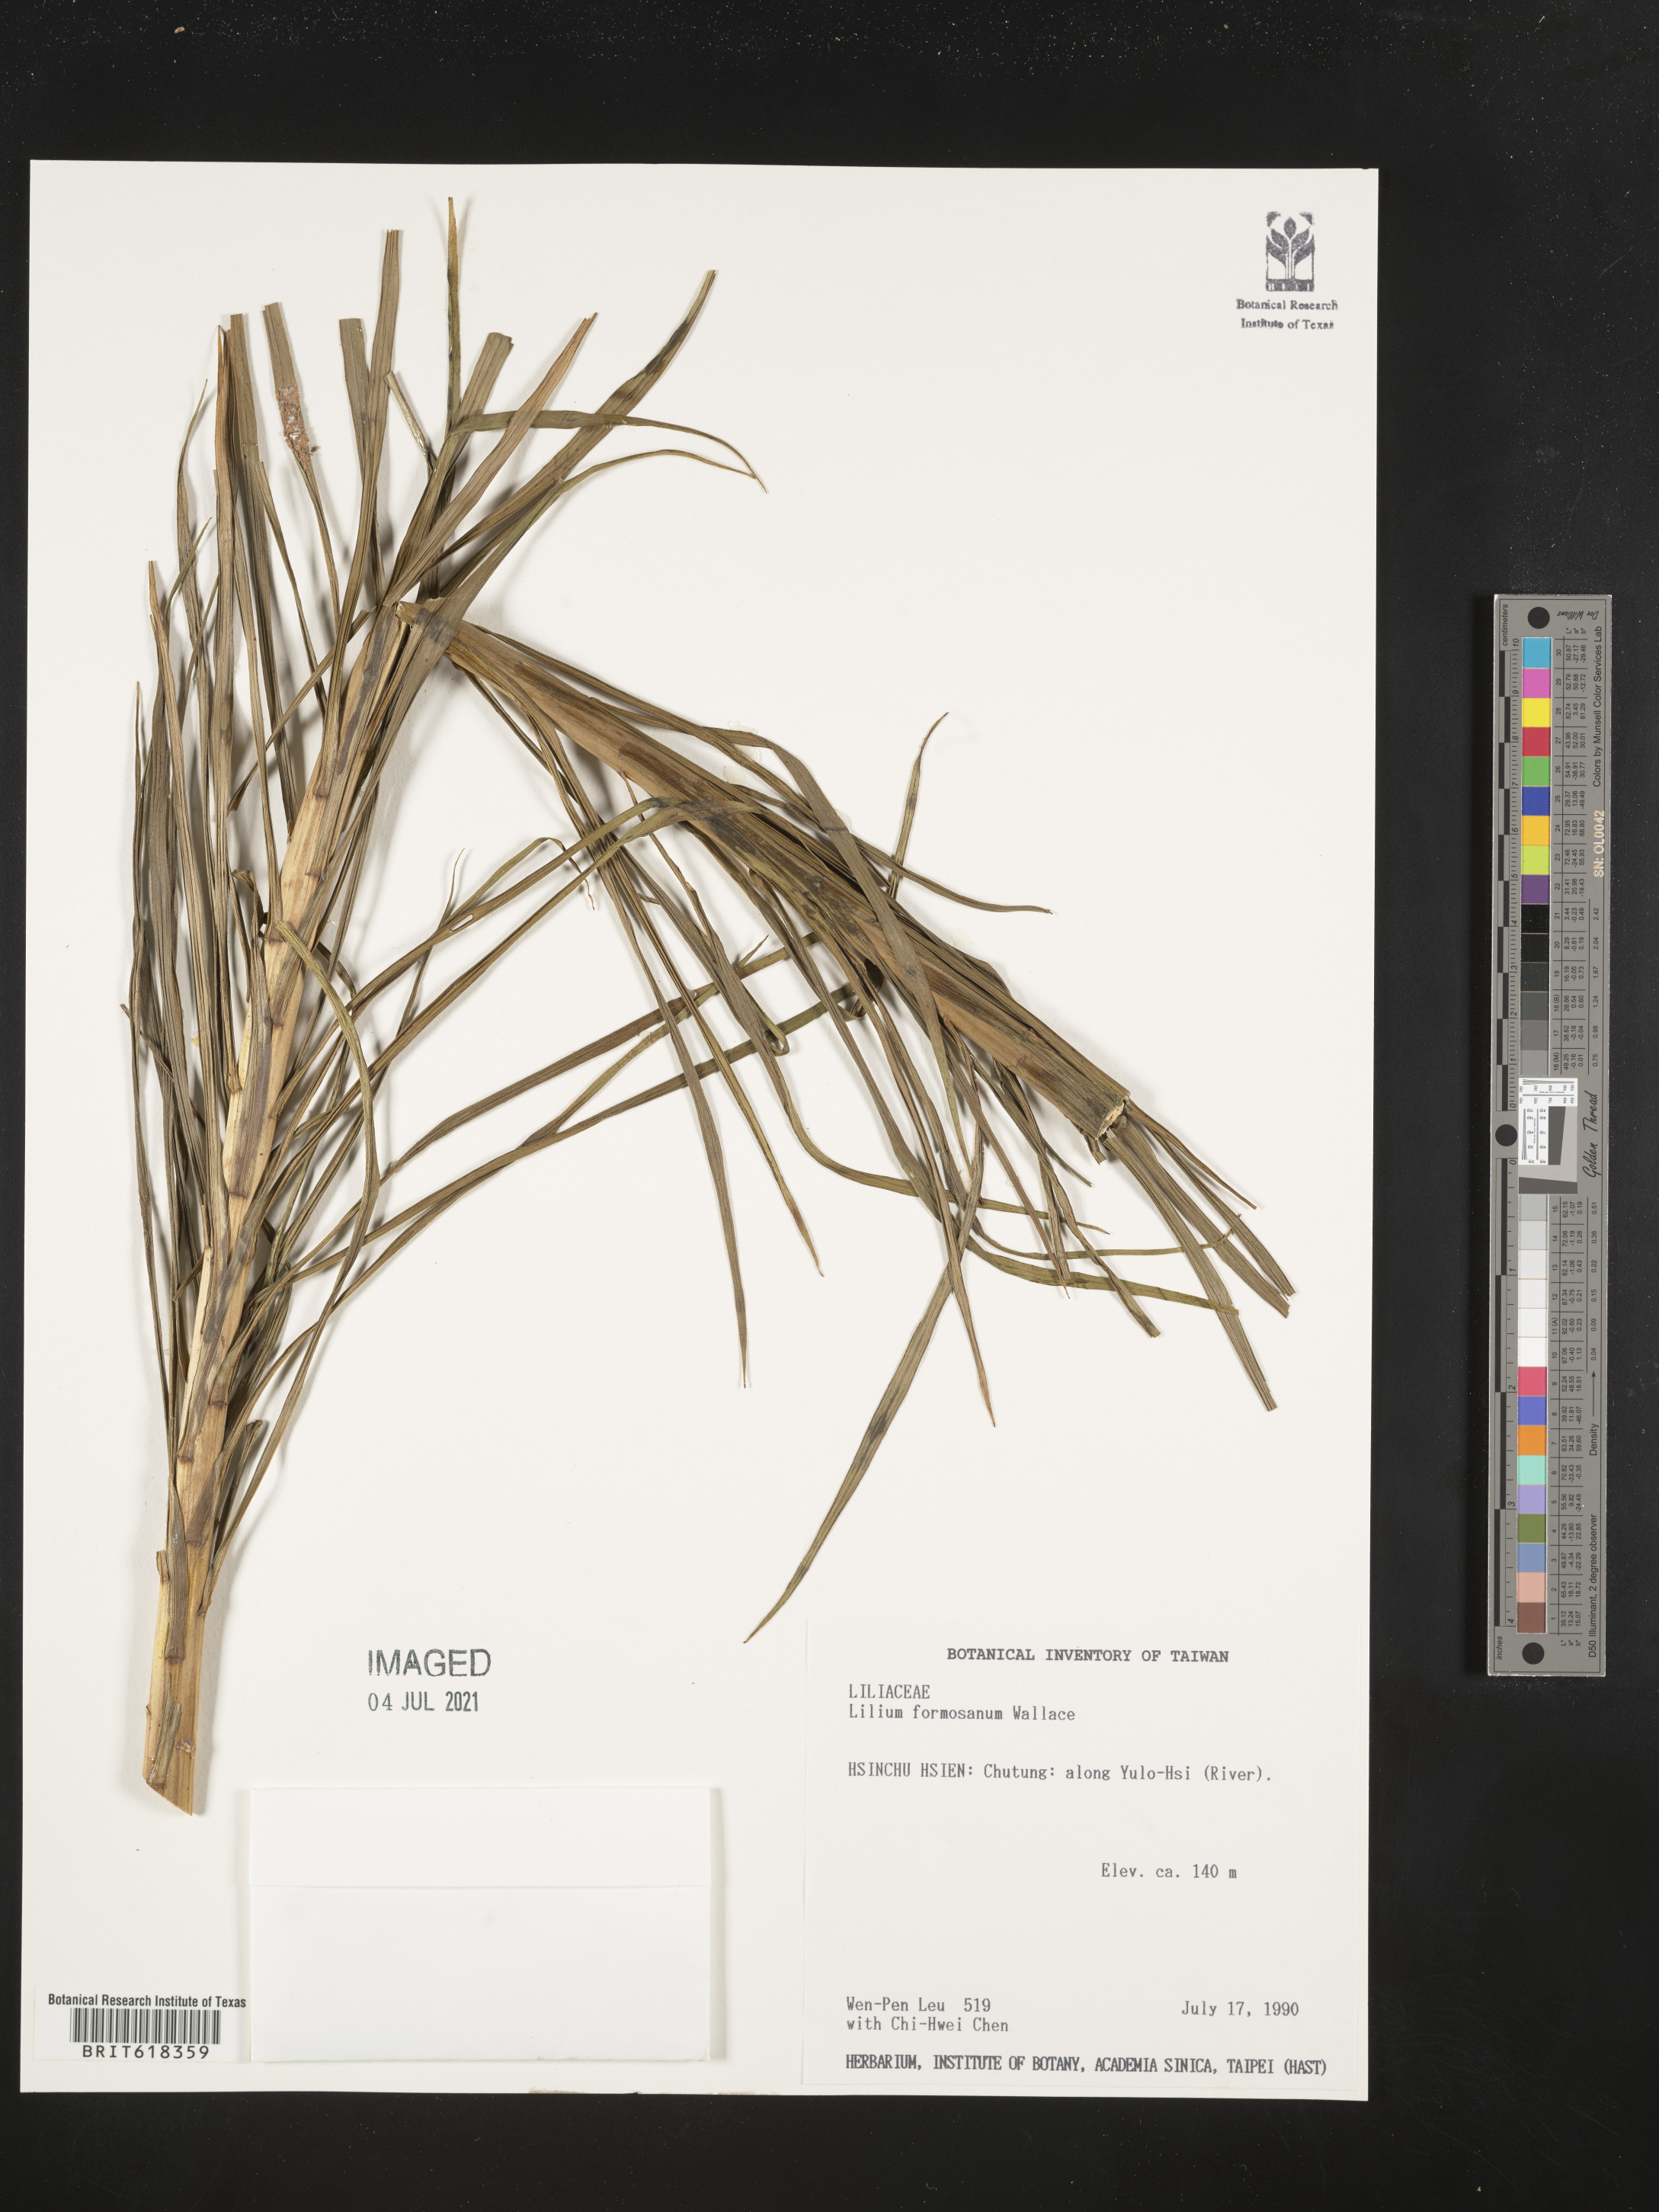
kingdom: Plantae
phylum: Tracheophyta
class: Liliopsida
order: Liliales
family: Liliaceae
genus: Lilium
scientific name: Lilium formosanum
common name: Formosa lily
